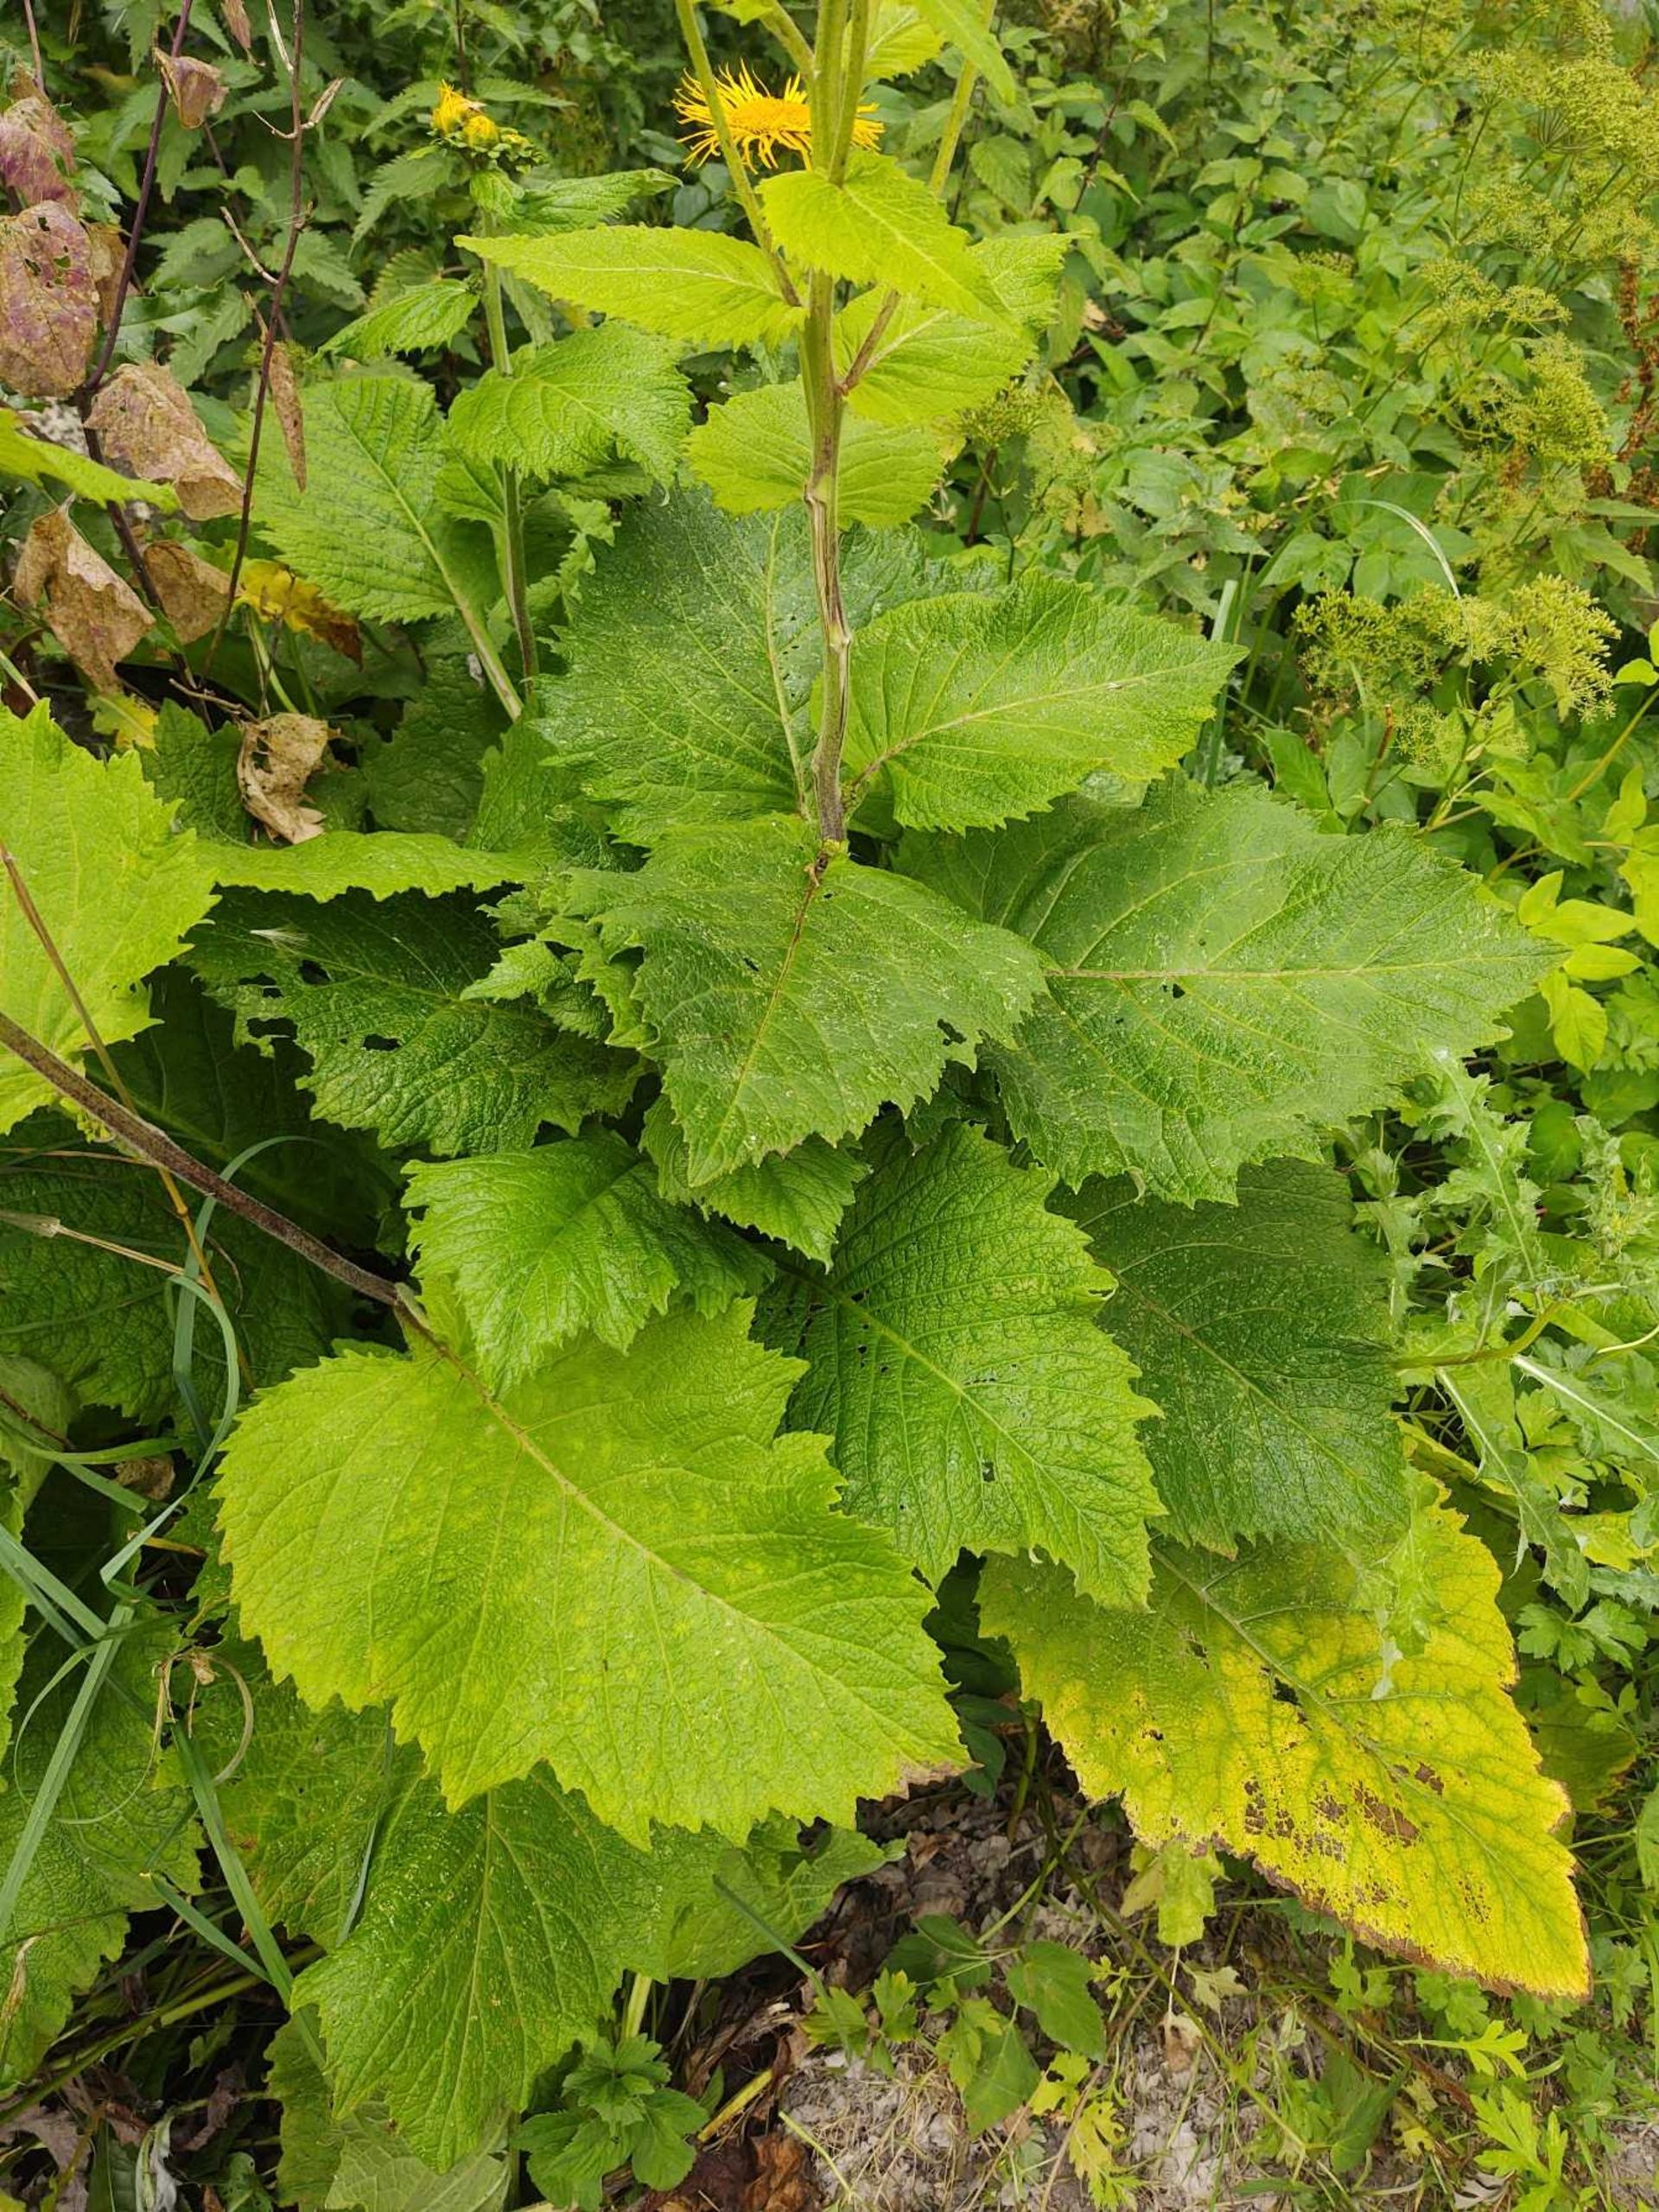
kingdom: Plantae
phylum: Tracheophyta
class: Magnoliopsida
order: Asterales
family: Asteraceae
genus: Telekia
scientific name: Telekia speciosa
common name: Tusindstråle
